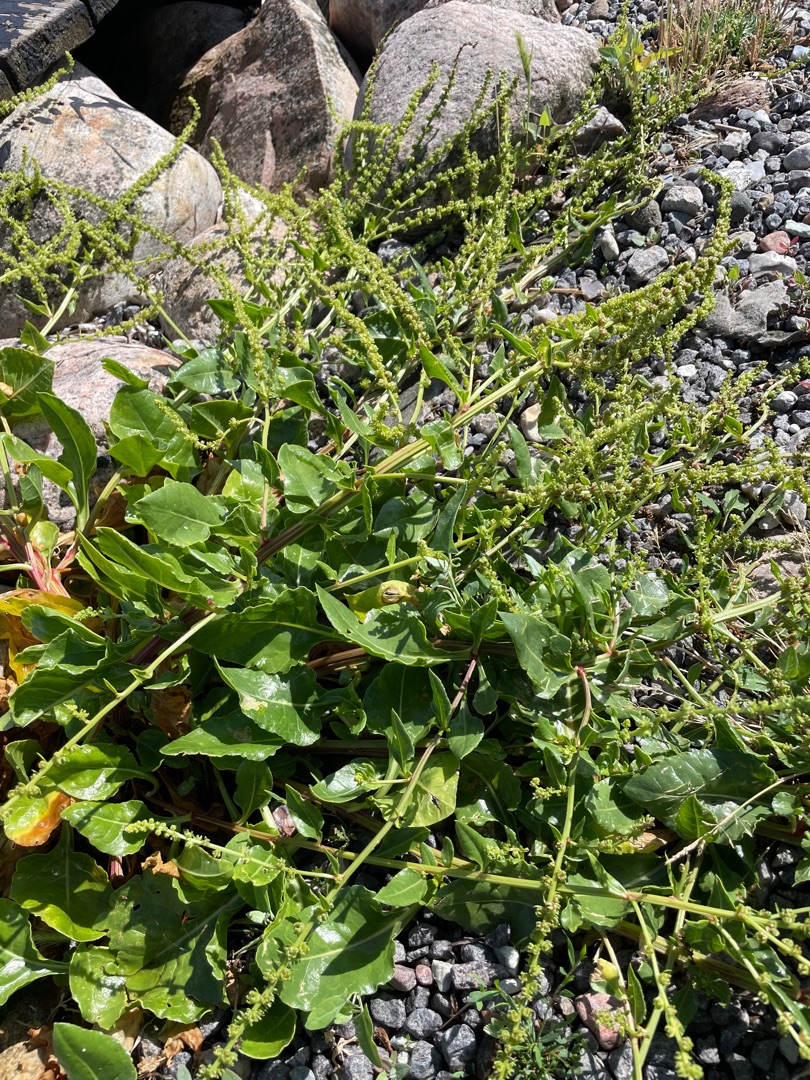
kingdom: Plantae
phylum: Tracheophyta
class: Magnoliopsida
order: Caryophyllales
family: Amaranthaceae
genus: Beta
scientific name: Beta maritima
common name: Strand-bede
